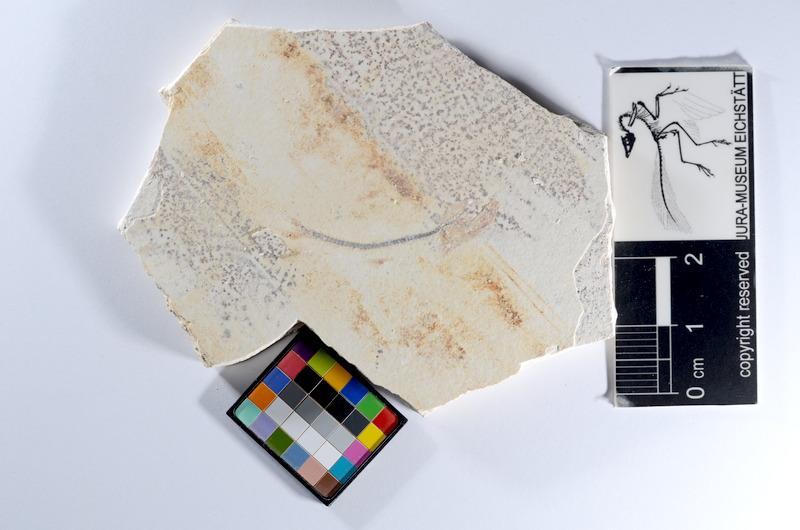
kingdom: Animalia
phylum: Chordata
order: Salmoniformes
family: Orthogonikleithridae
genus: Orthogonikleithrus
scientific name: Orthogonikleithrus hoelli
